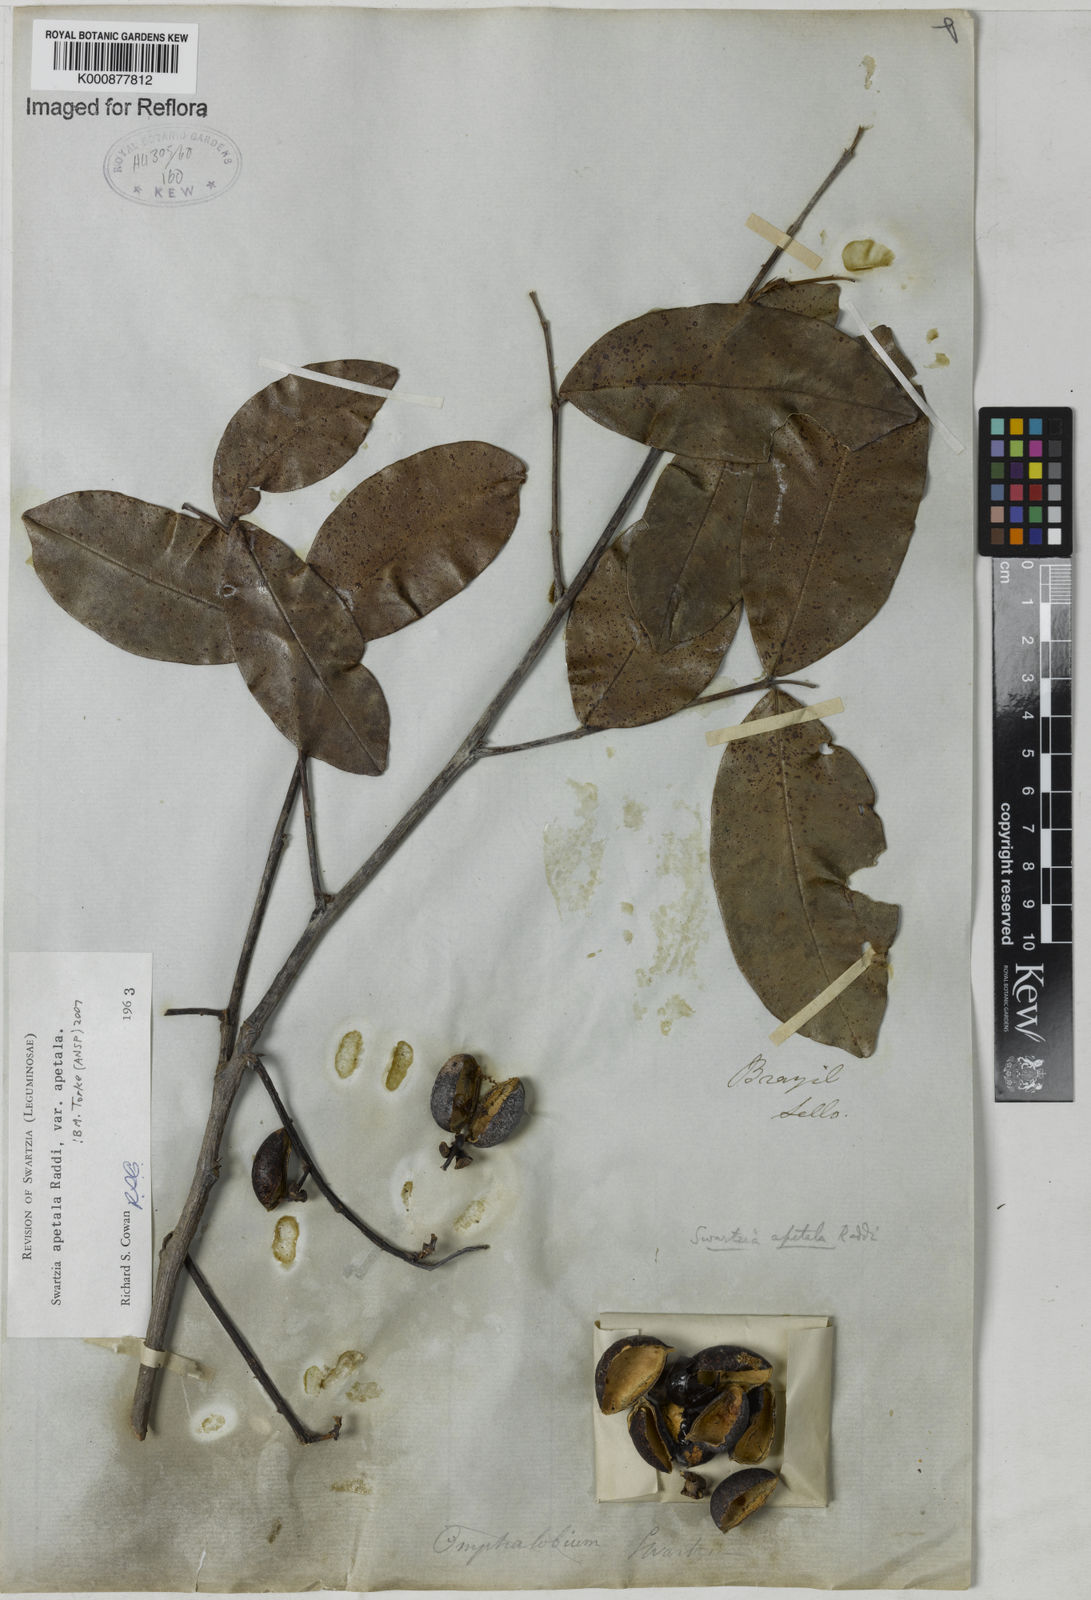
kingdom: Plantae
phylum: Tracheophyta
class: Magnoliopsida
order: Fabales
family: Fabaceae
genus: Swartzia
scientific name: Swartzia apetala
